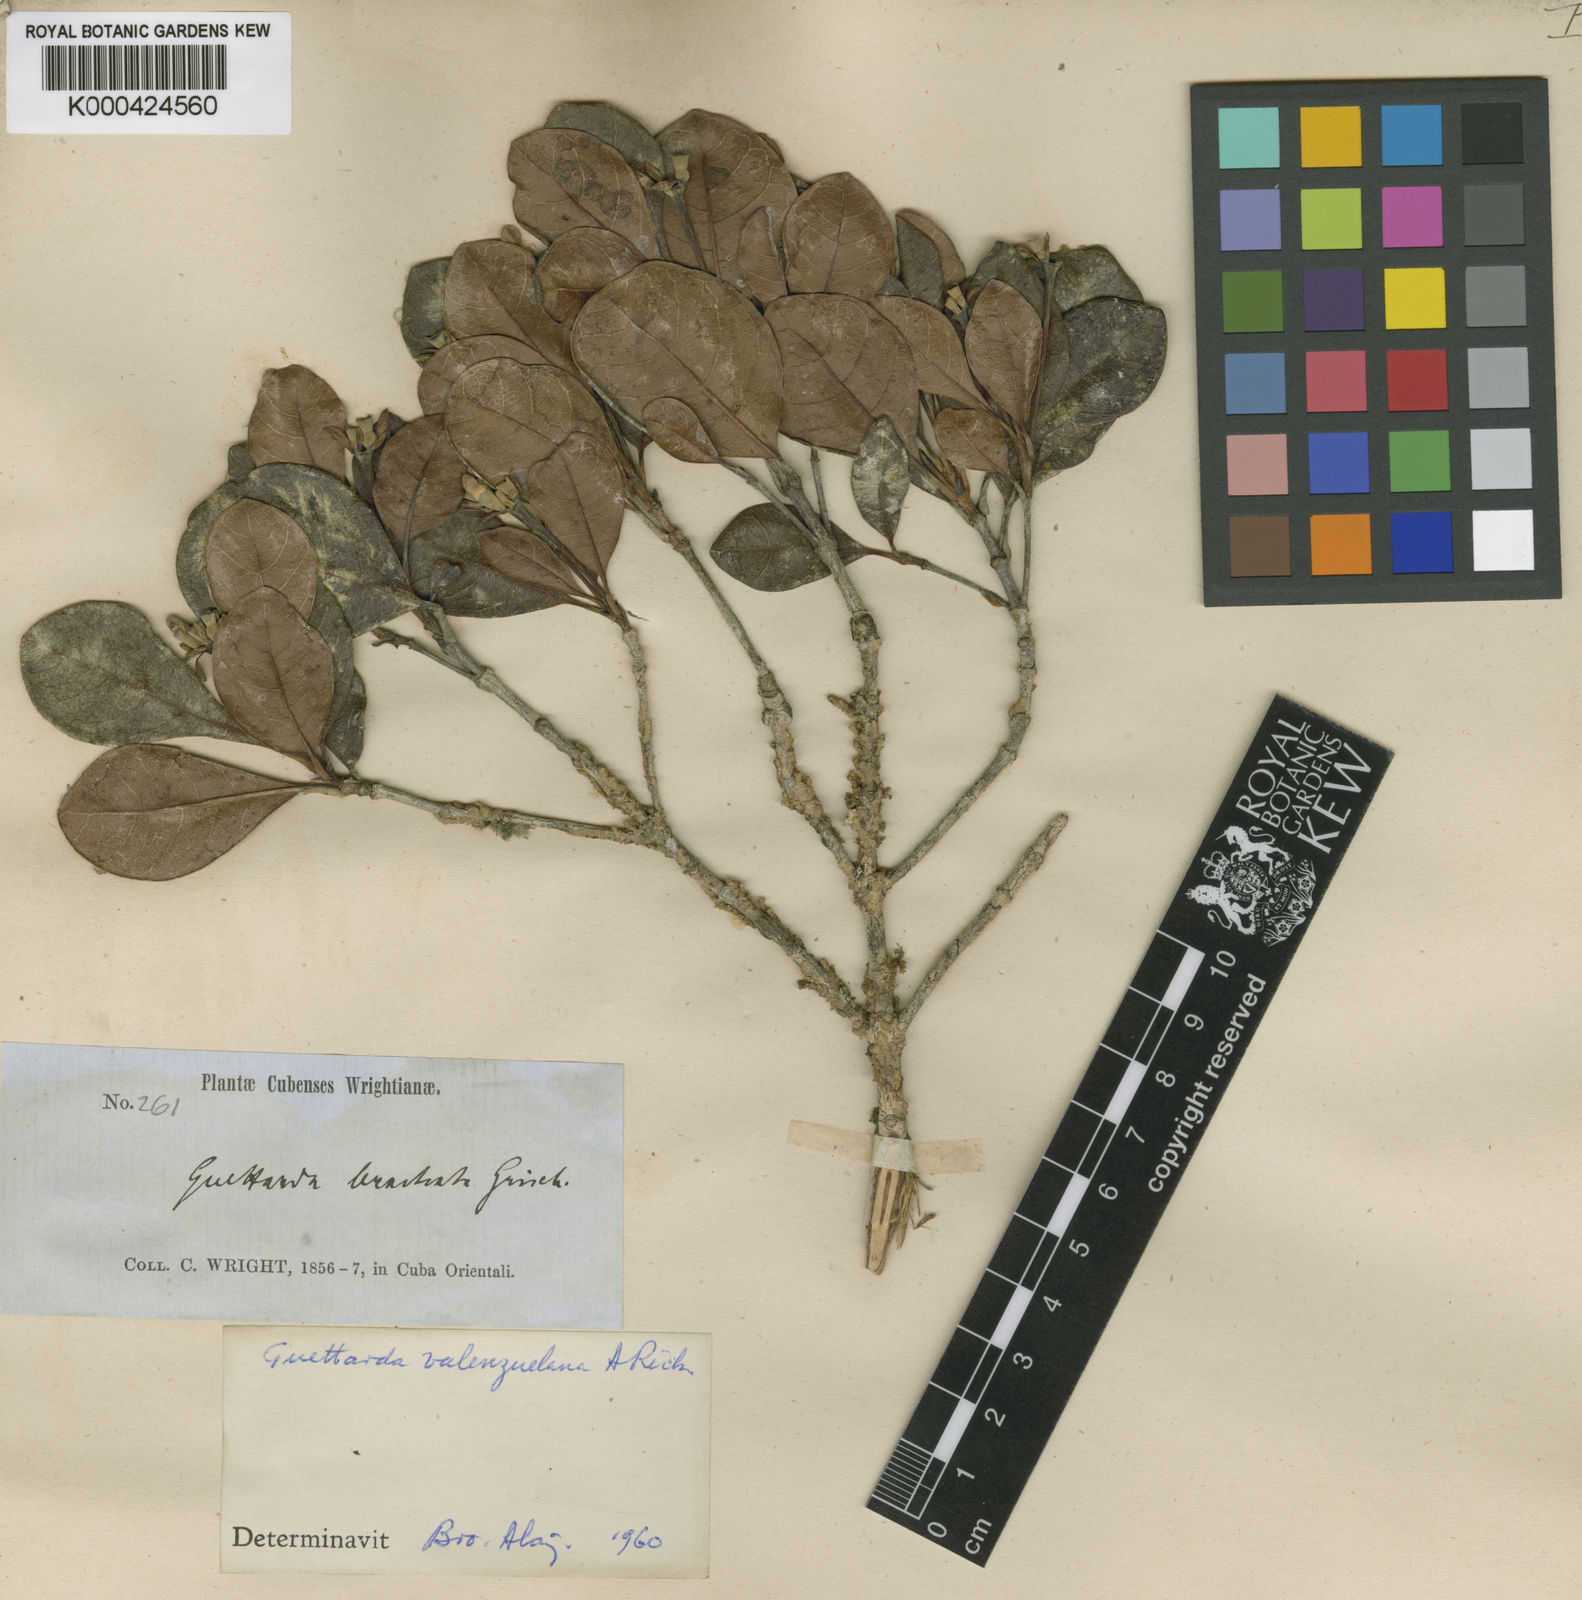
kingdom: Plantae
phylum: Tracheophyta
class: Magnoliopsida
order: Gentianales
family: Rubiaceae
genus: Guettarda
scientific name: Guettarda valenzuelana
